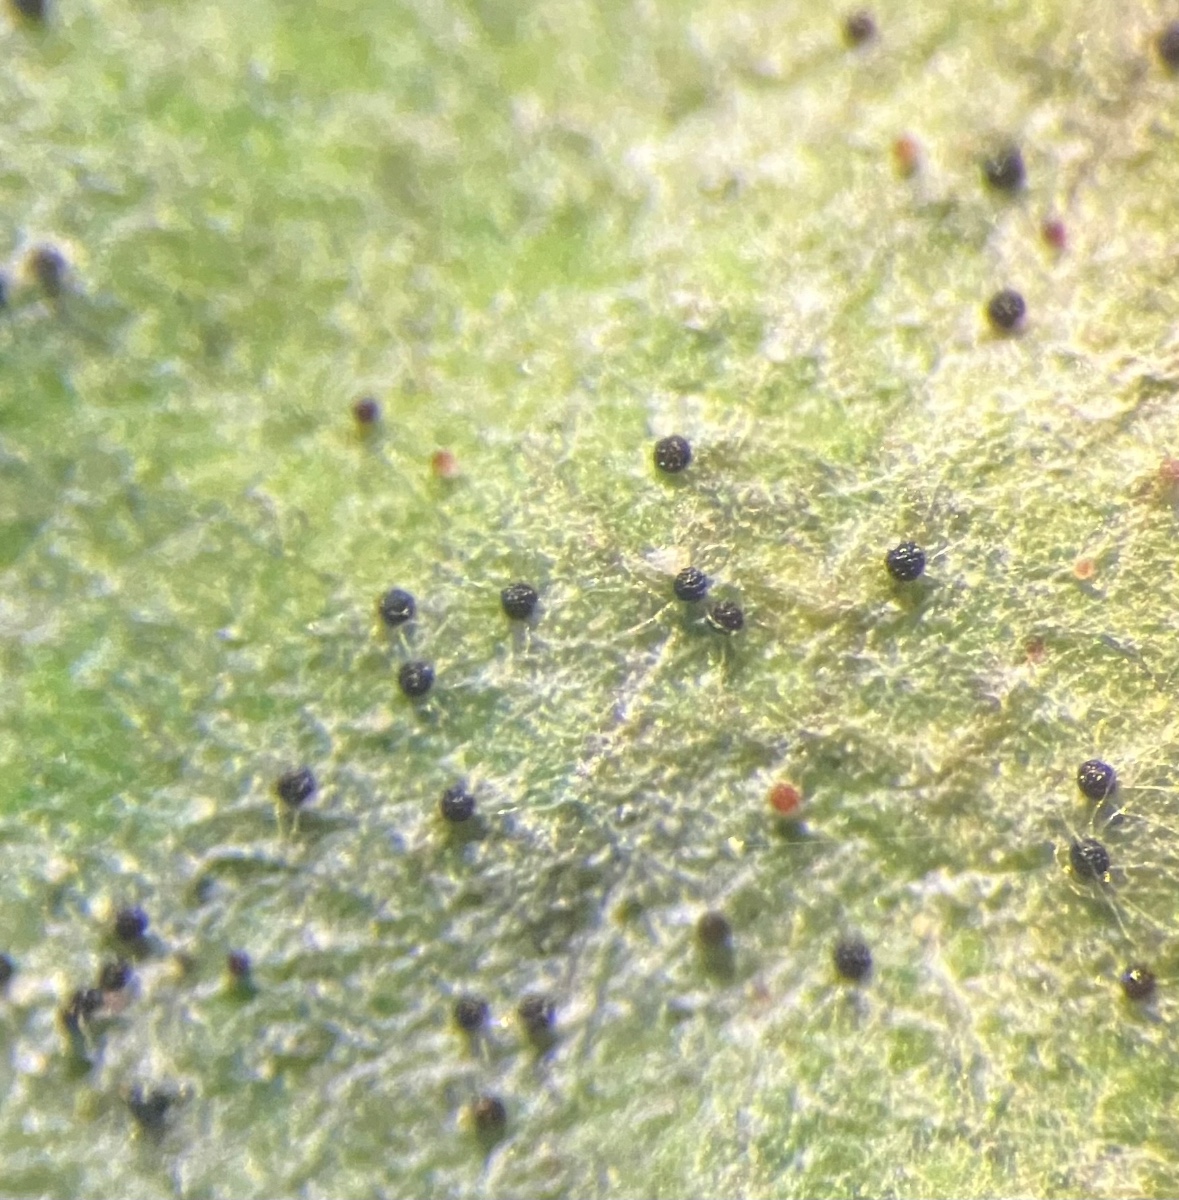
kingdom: Fungi
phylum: Ascomycota
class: Leotiomycetes
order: Helotiales
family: Erysiphaceae
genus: Erysiphe
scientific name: Erysiphe elevata
